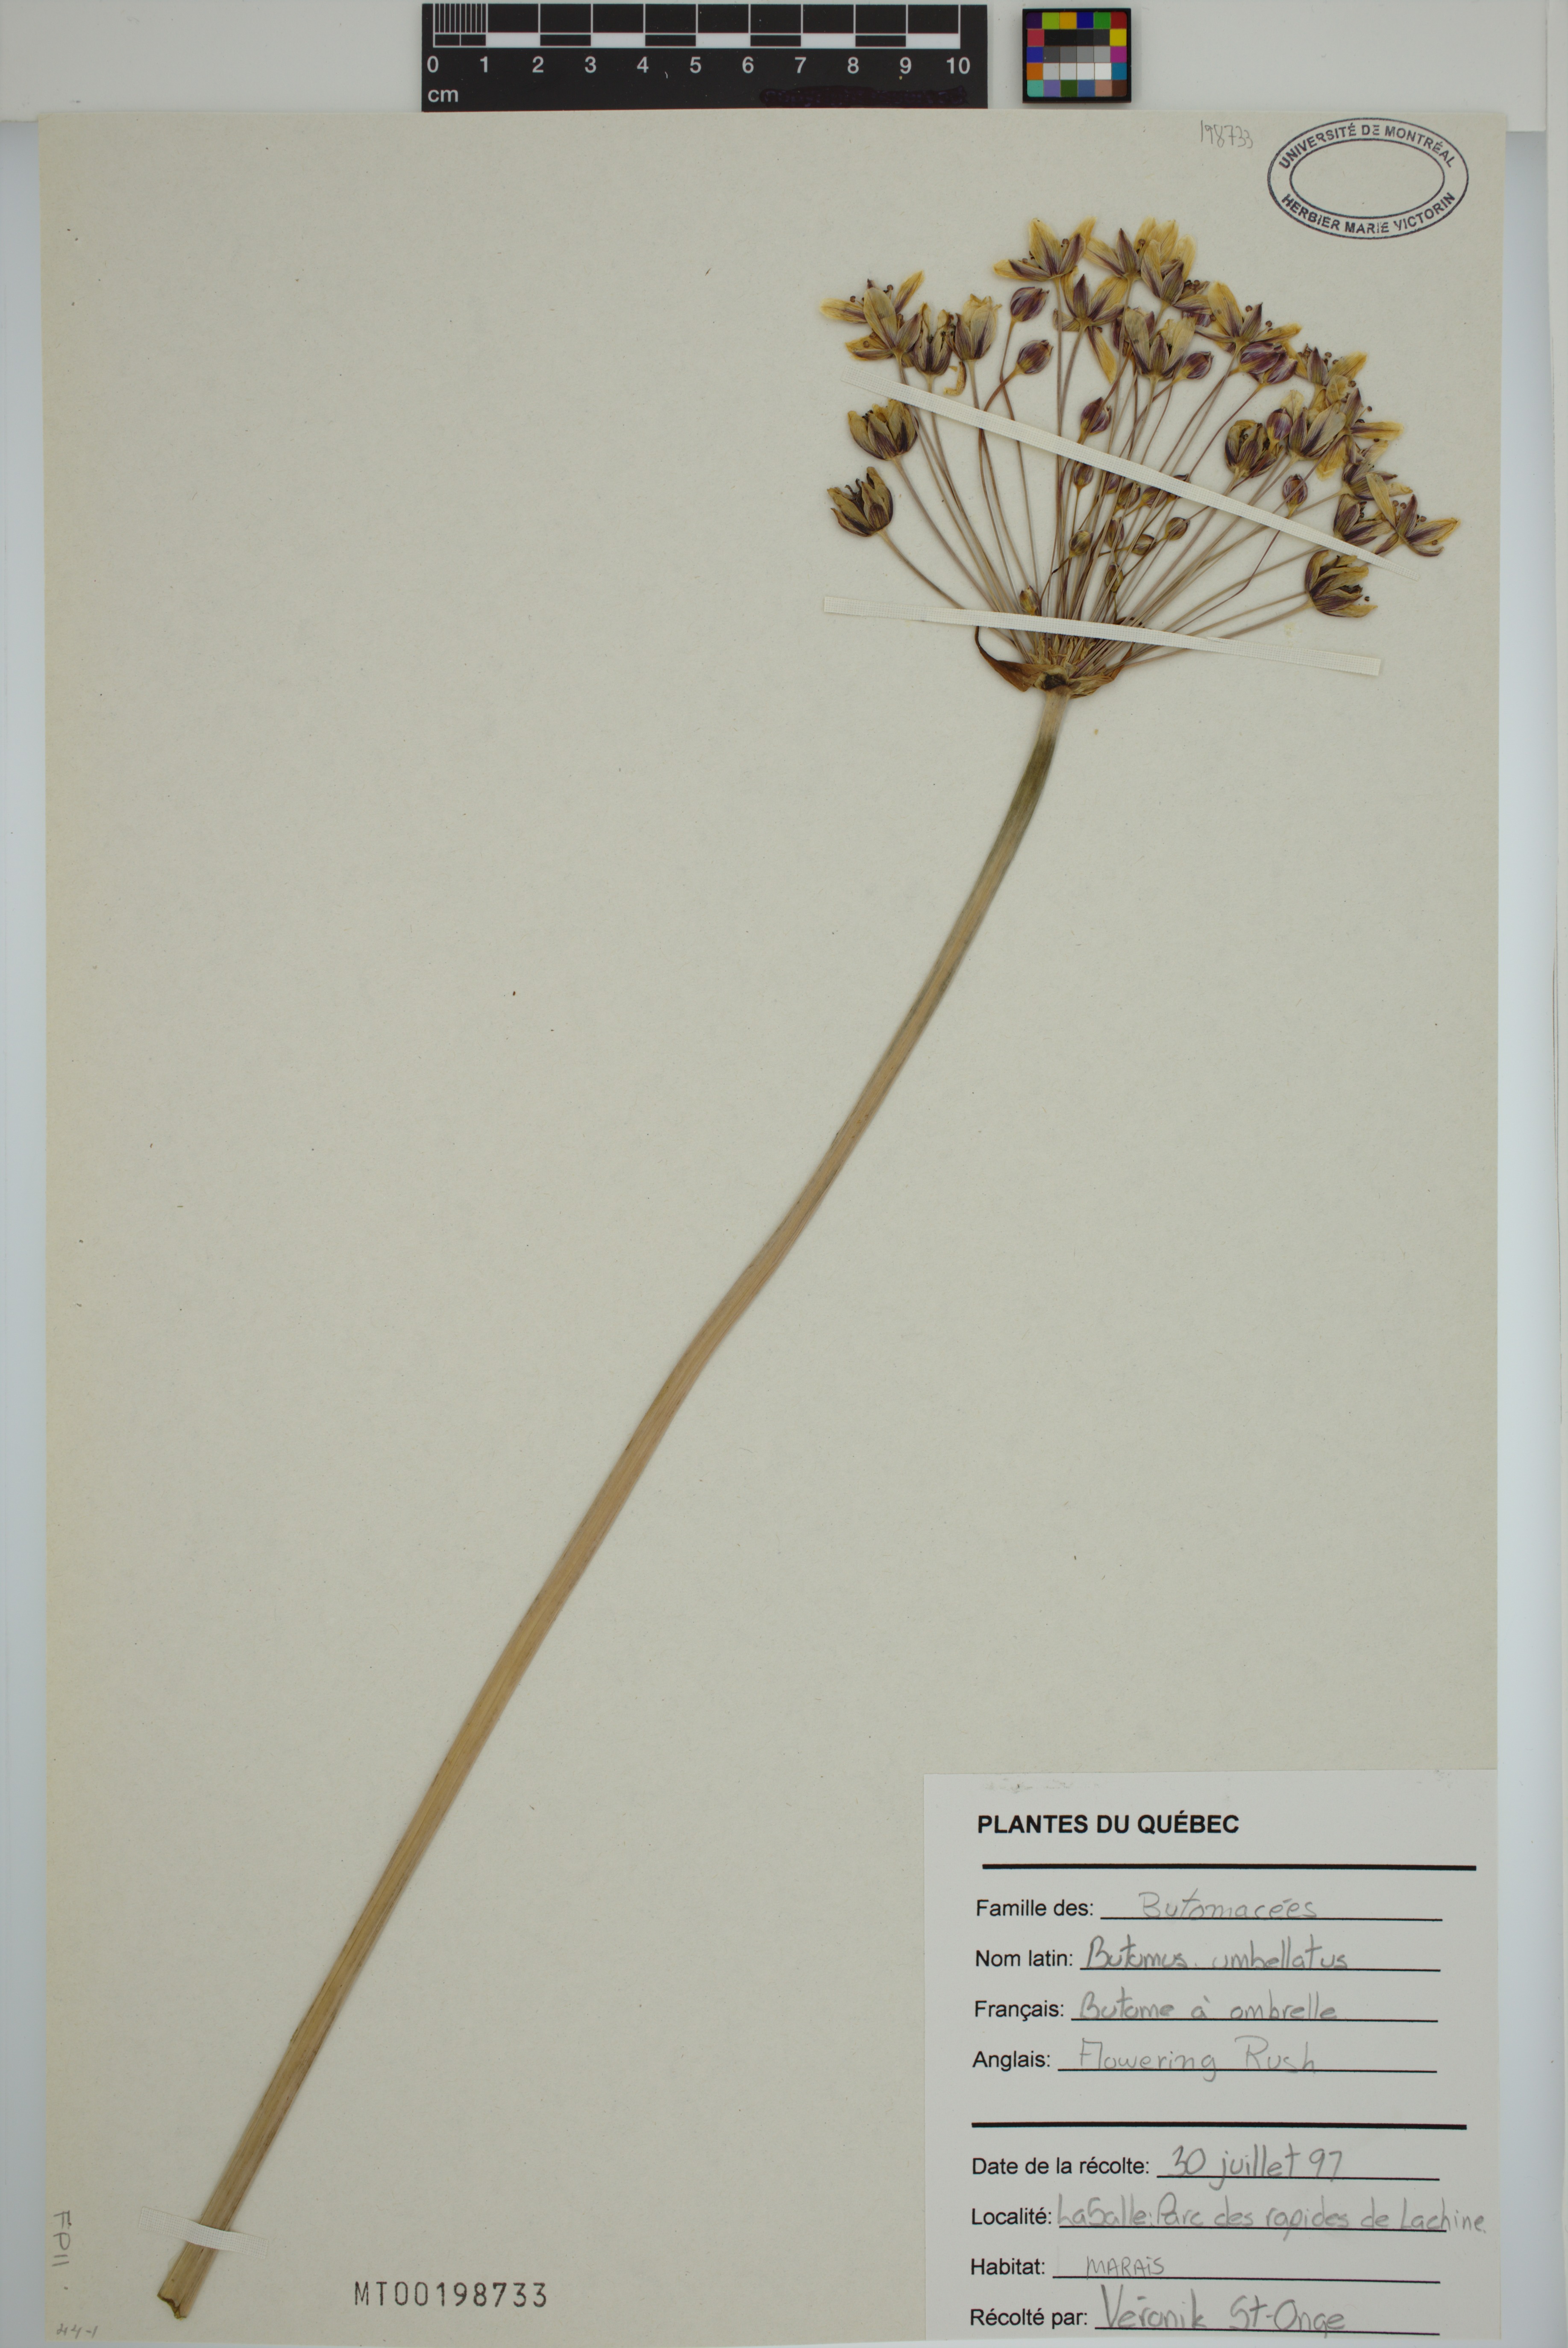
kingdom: Plantae
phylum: Tracheophyta
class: Liliopsida
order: Alismatales
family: Butomaceae
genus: Butomus
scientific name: Butomus umbellatus
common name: Flowering-rush
